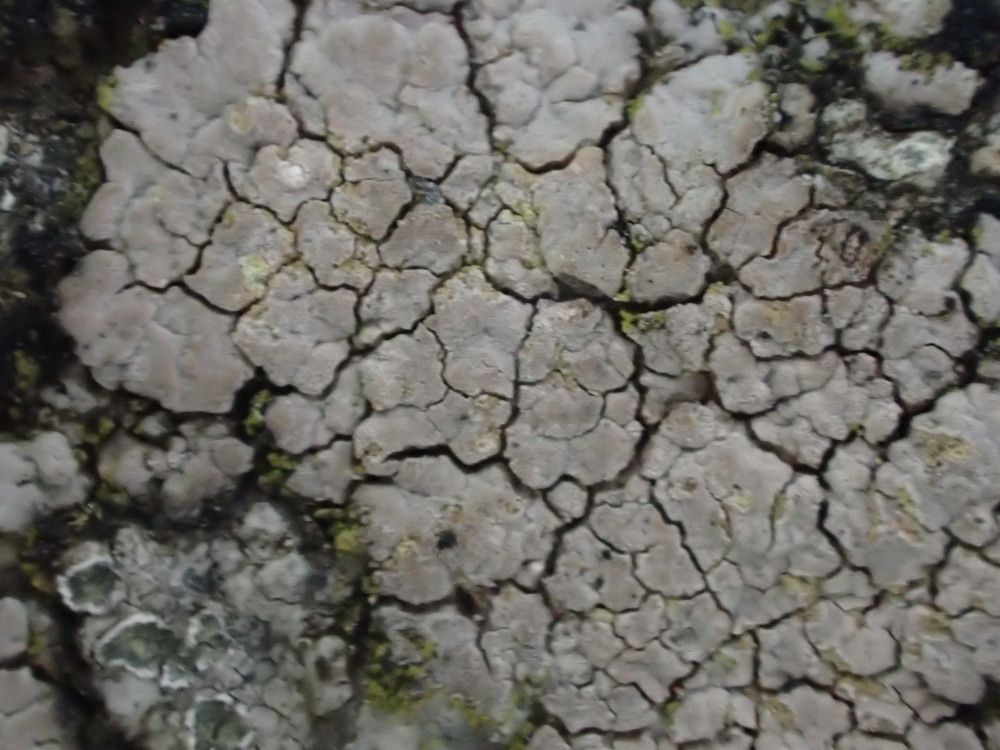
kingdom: Fungi
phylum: Ascomycota
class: Lecanoromycetes
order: Baeomycetales
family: Trapeliaceae
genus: Kleopowiella
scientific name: Kleopowiella placodioides
